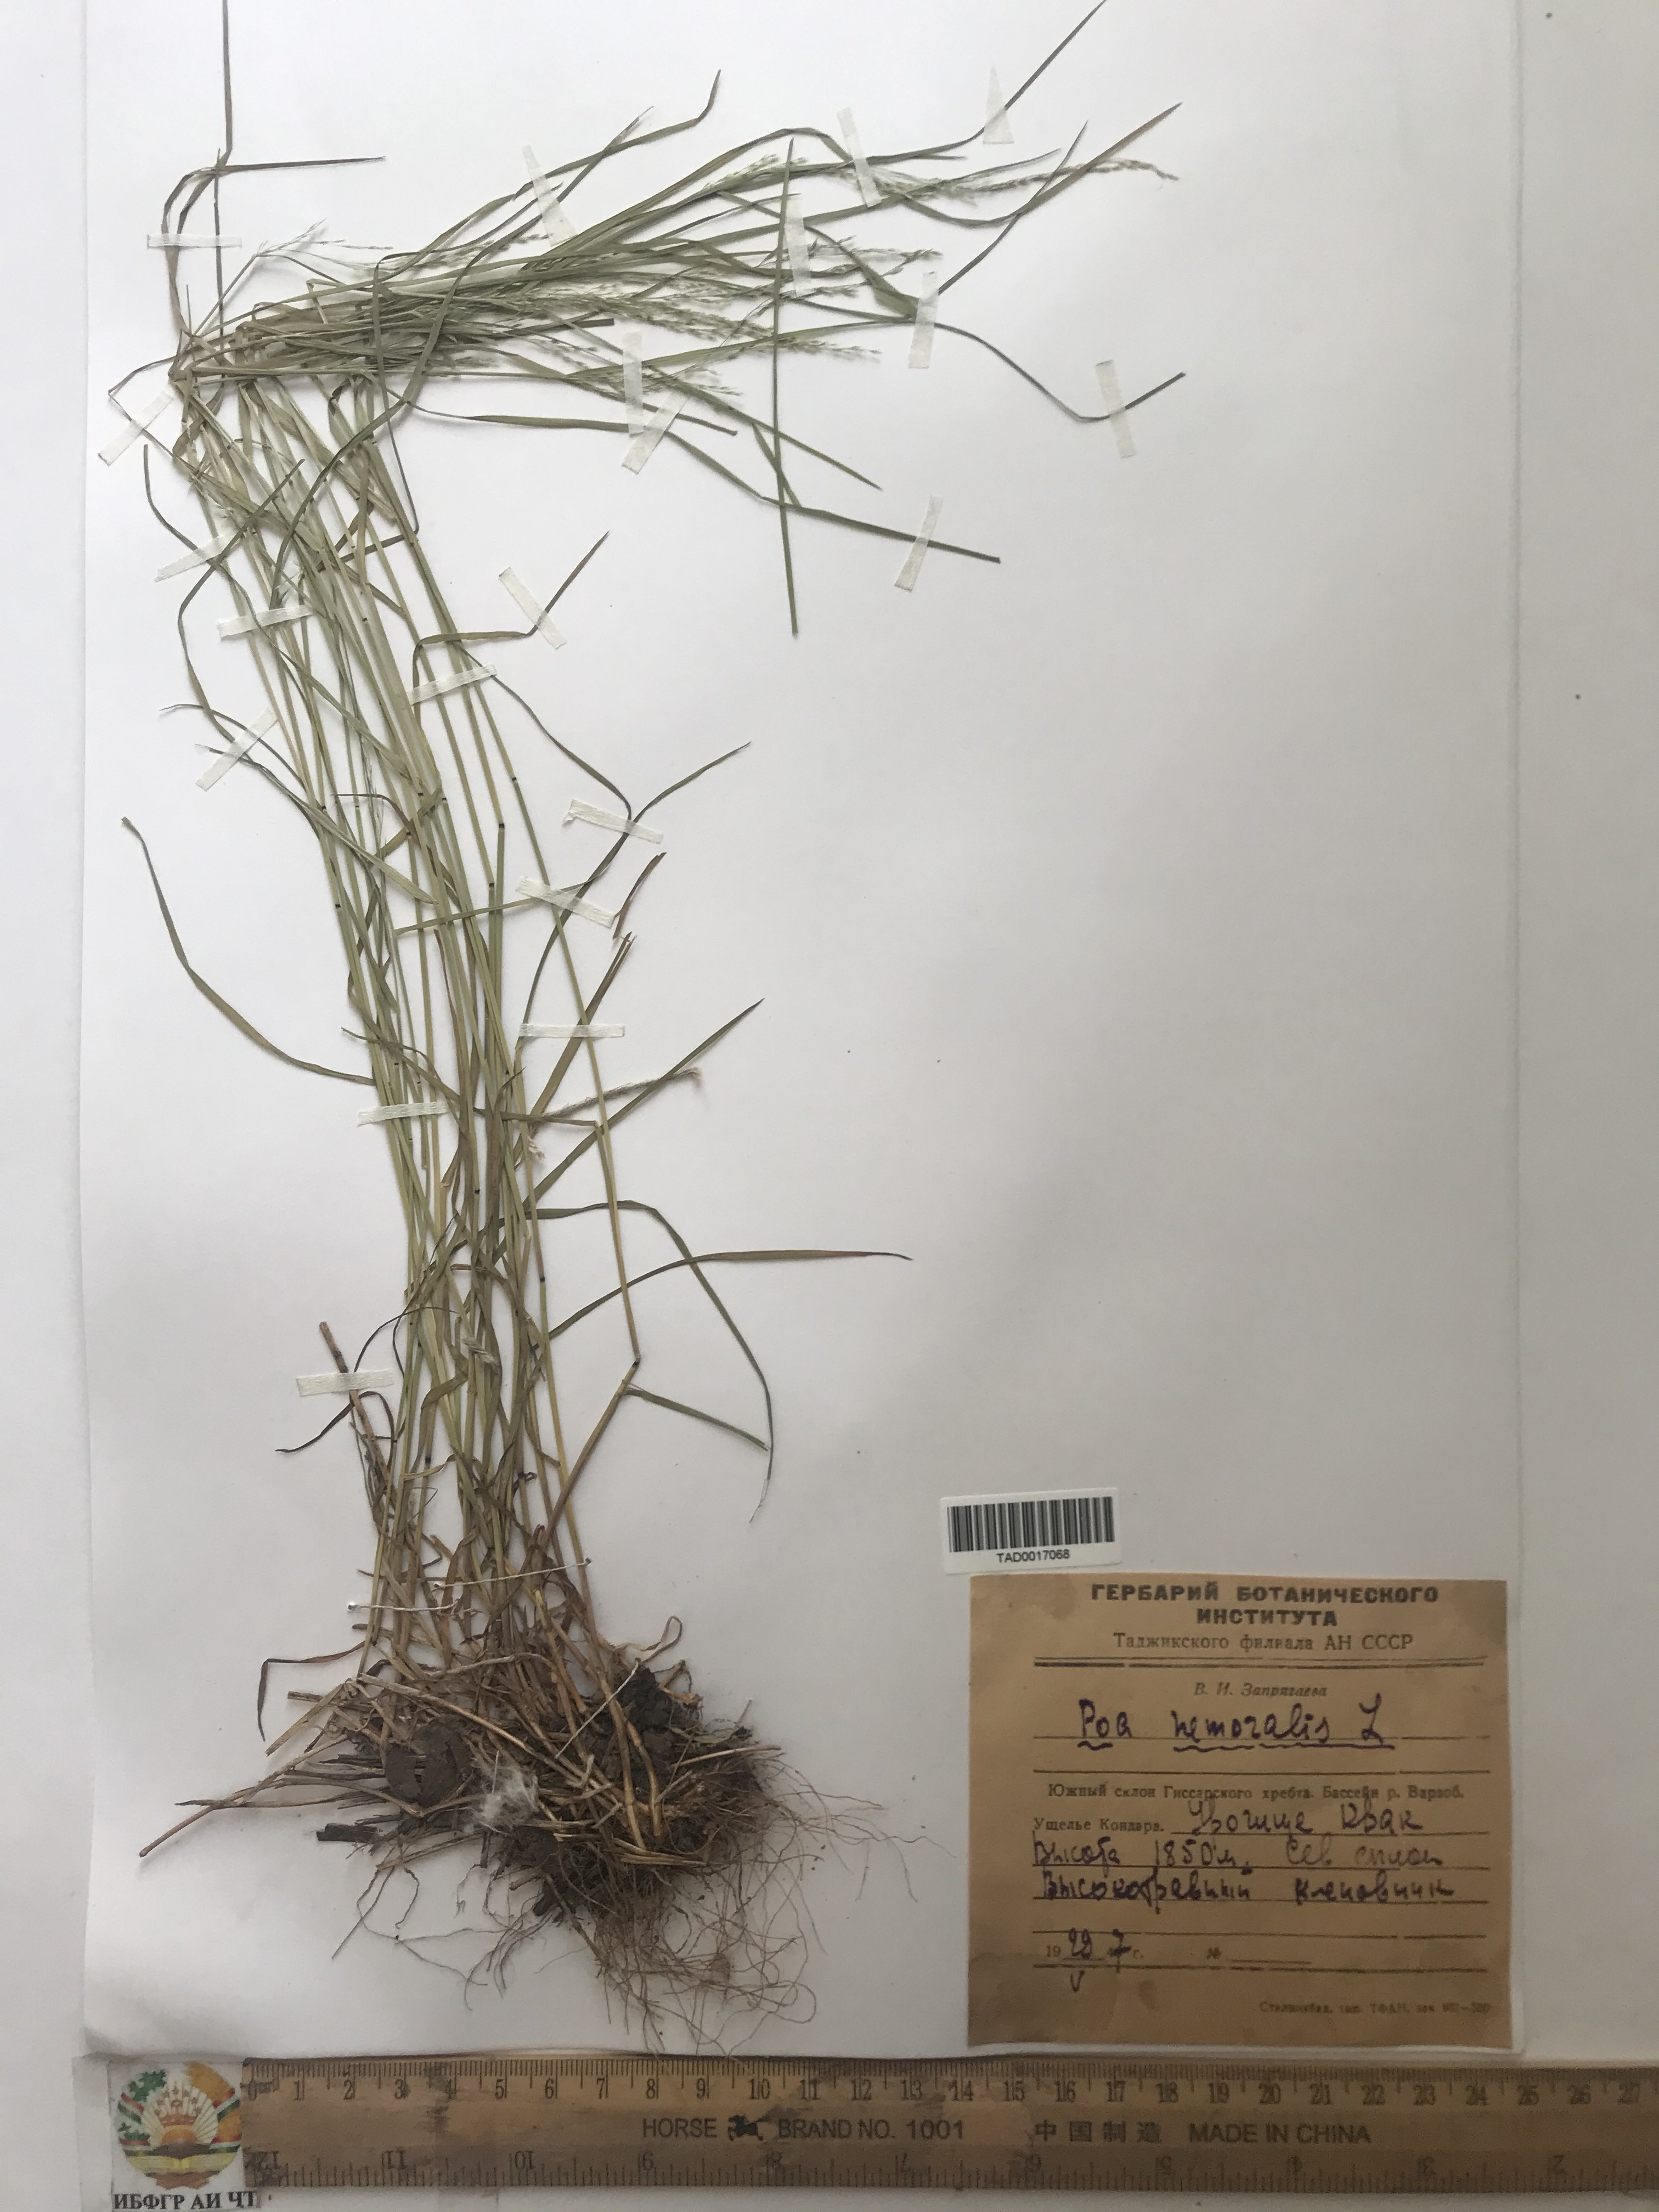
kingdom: Plantae
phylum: Tracheophyta
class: Liliopsida
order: Poales
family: Poaceae
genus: Poa
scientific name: Poa nemoralis
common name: Wood bluegrass
